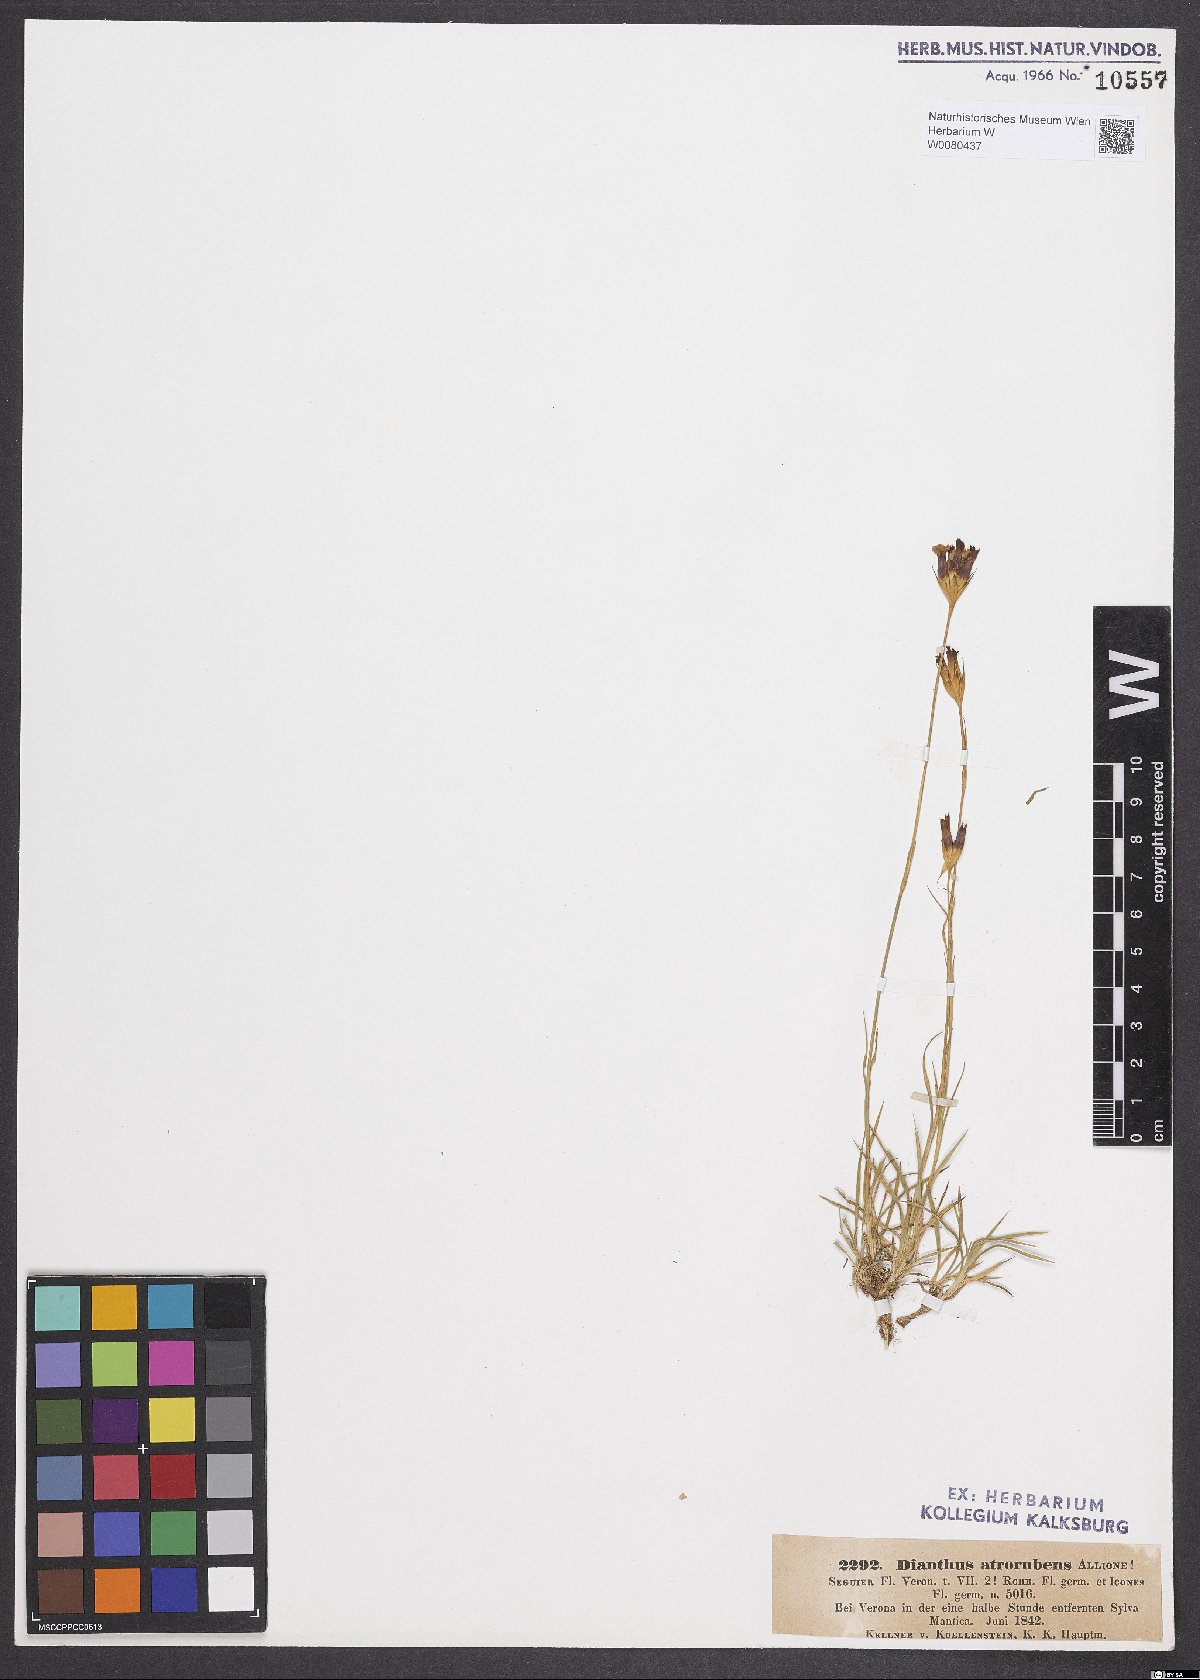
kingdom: Plantae
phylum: Tracheophyta
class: Magnoliopsida
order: Caryophyllales
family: Caryophyllaceae
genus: Dianthus
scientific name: Dianthus carthusianorum
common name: Carthusian pink
